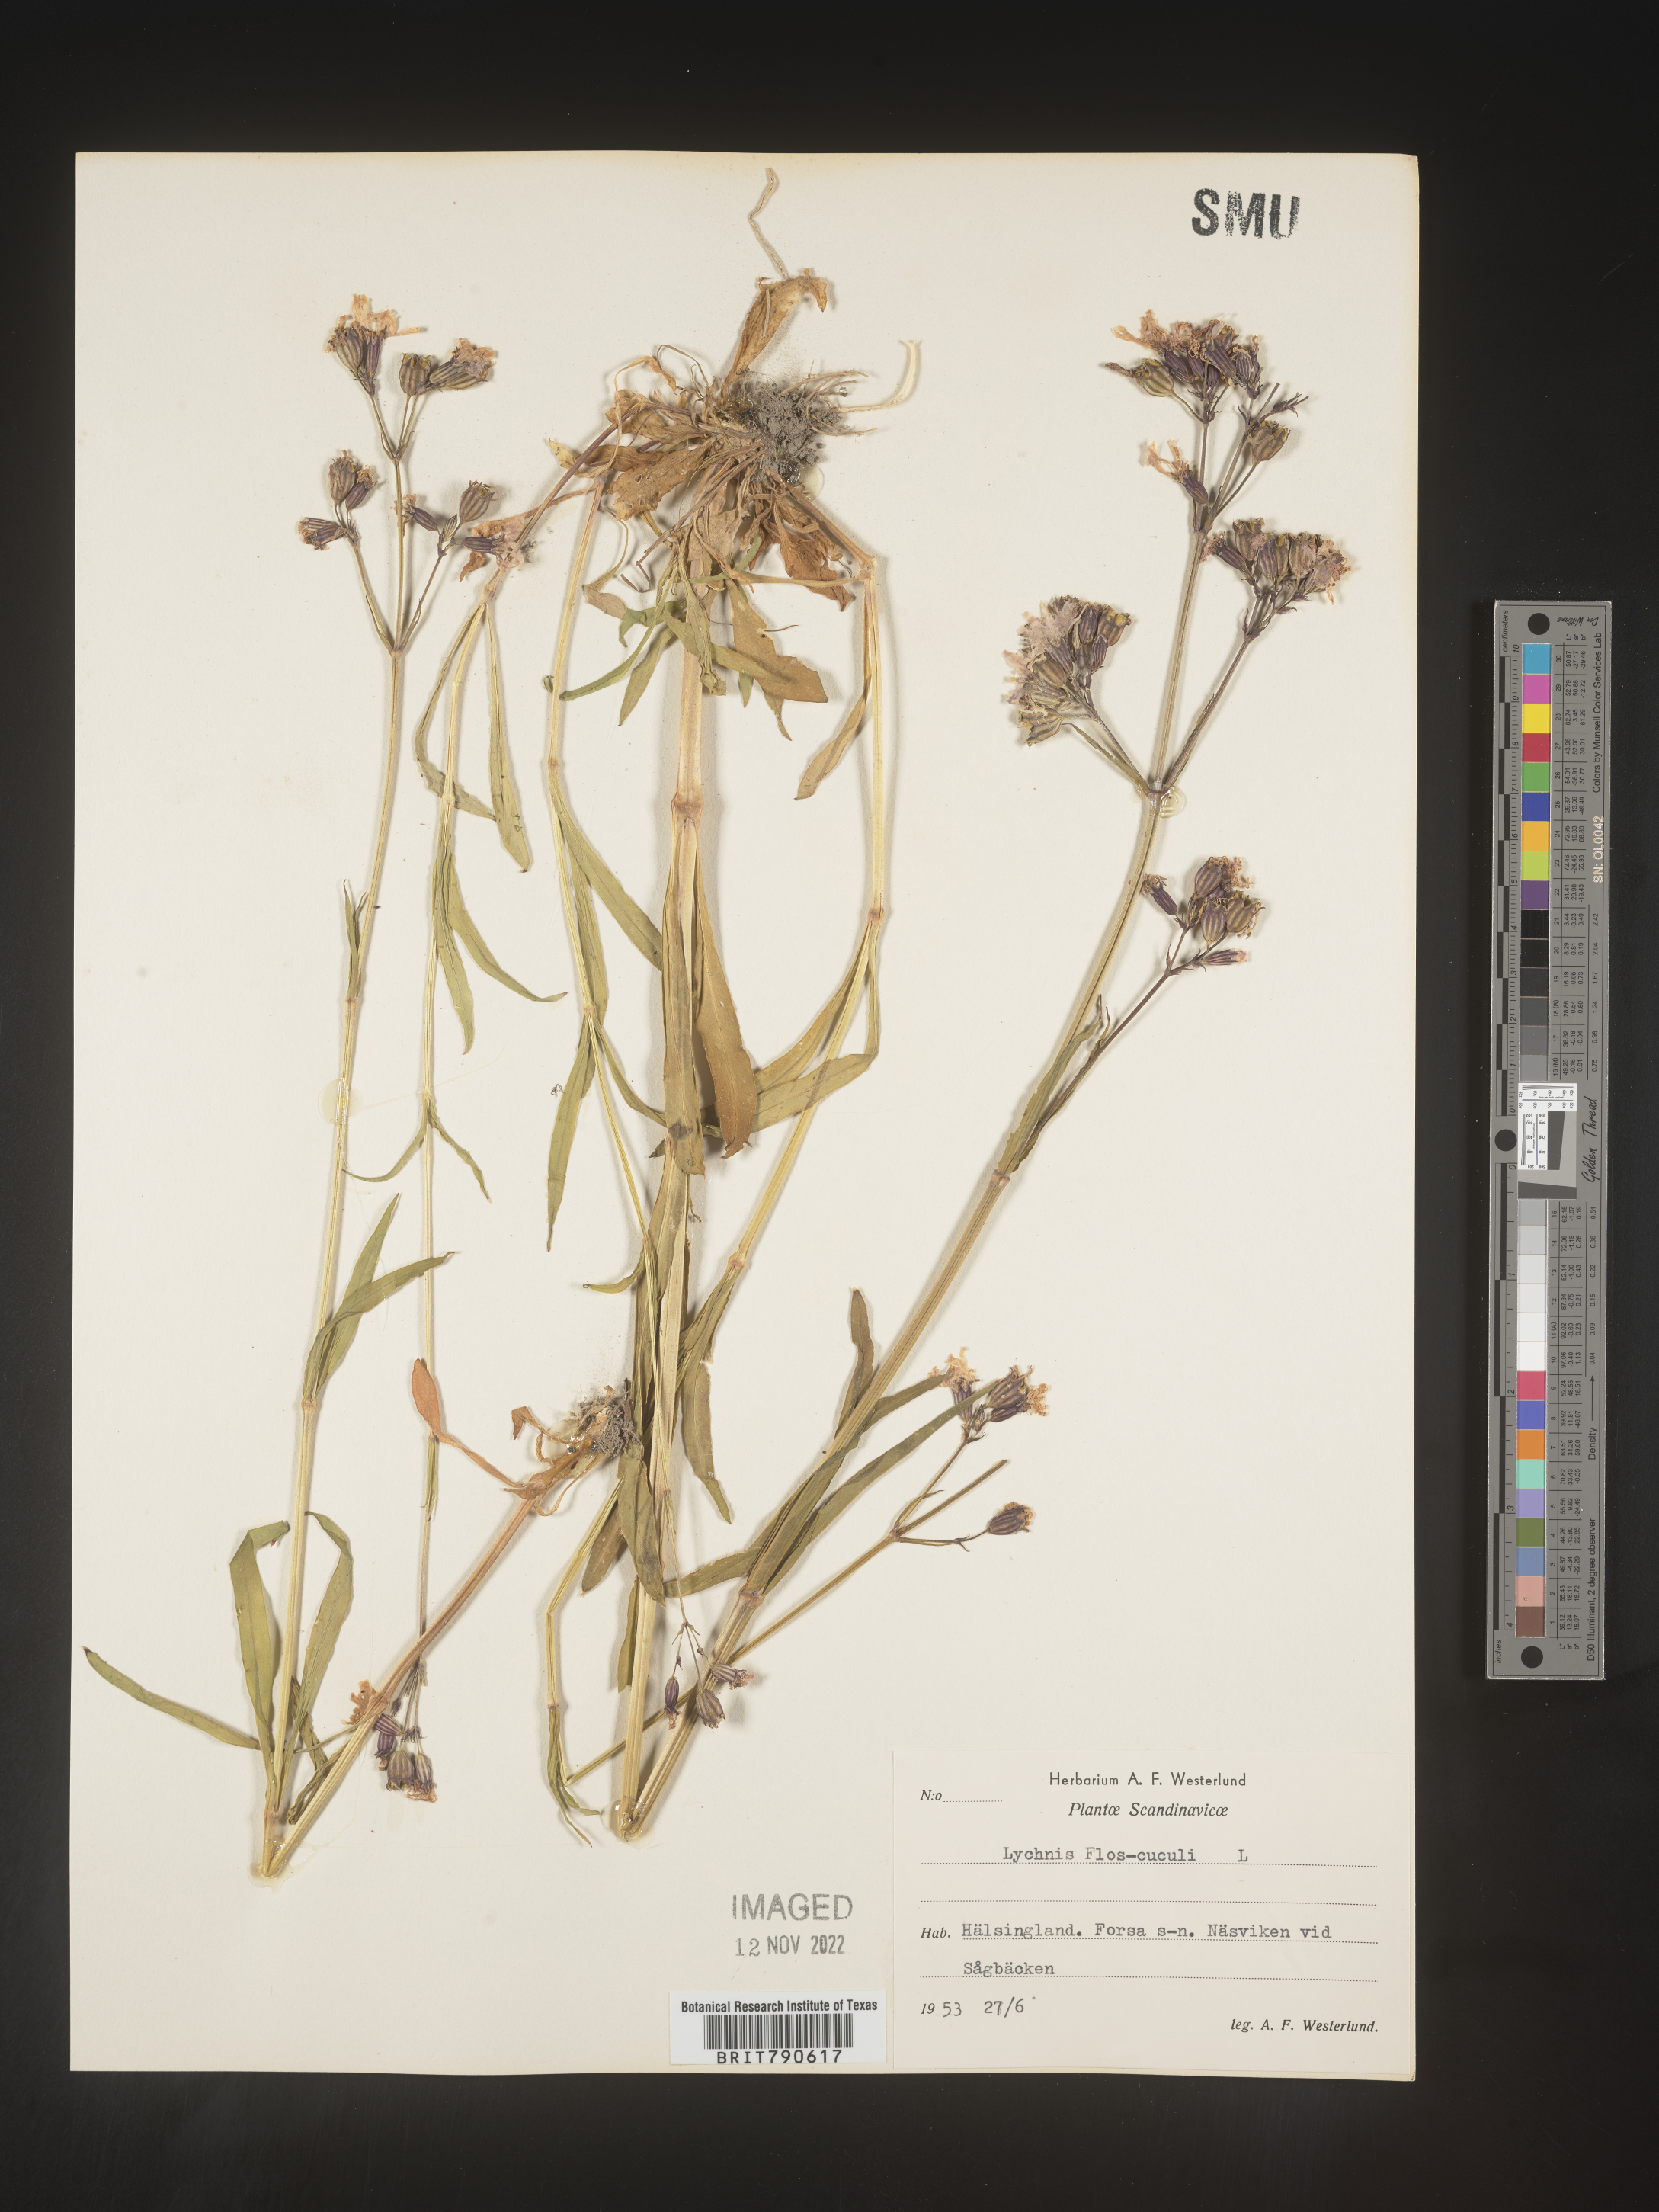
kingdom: Plantae
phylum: Tracheophyta
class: Magnoliopsida
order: Caryophyllales
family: Caryophyllaceae
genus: Silene
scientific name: Silene
